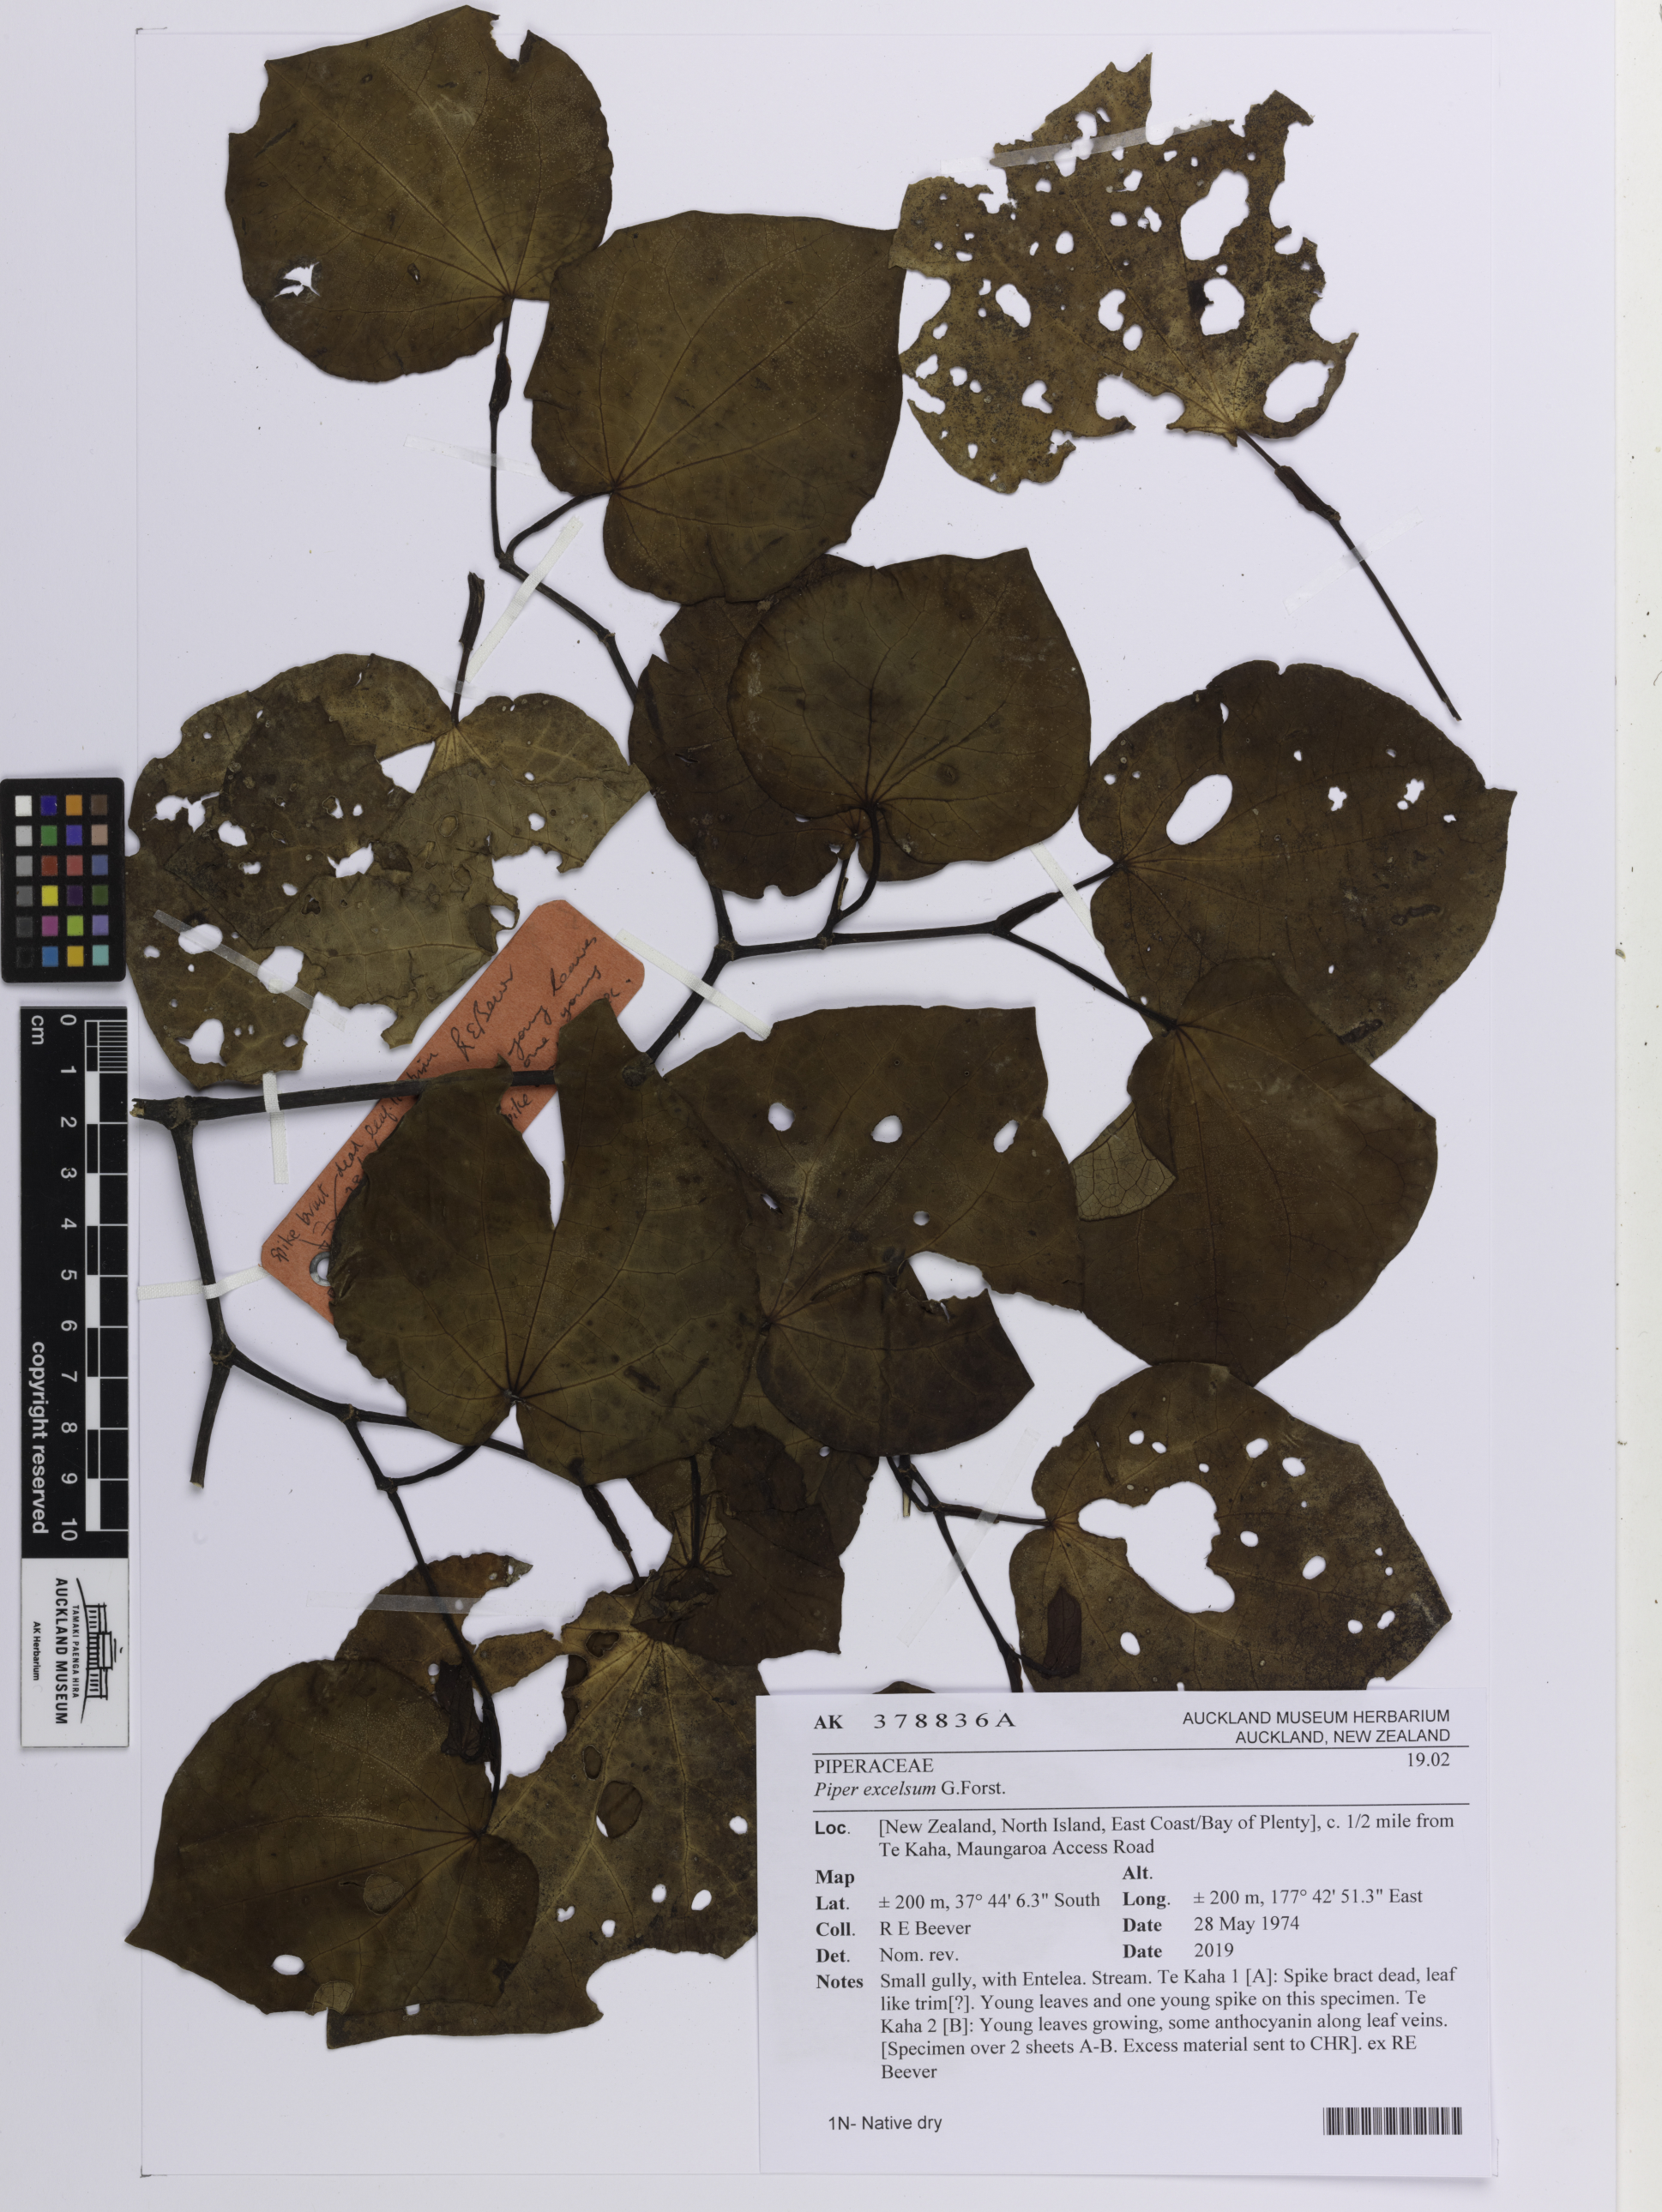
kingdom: Plantae
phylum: Tracheophyta
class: Magnoliopsida
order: Piperales
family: Piperaceae
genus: Macropiper
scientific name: Macropiper excelsum
